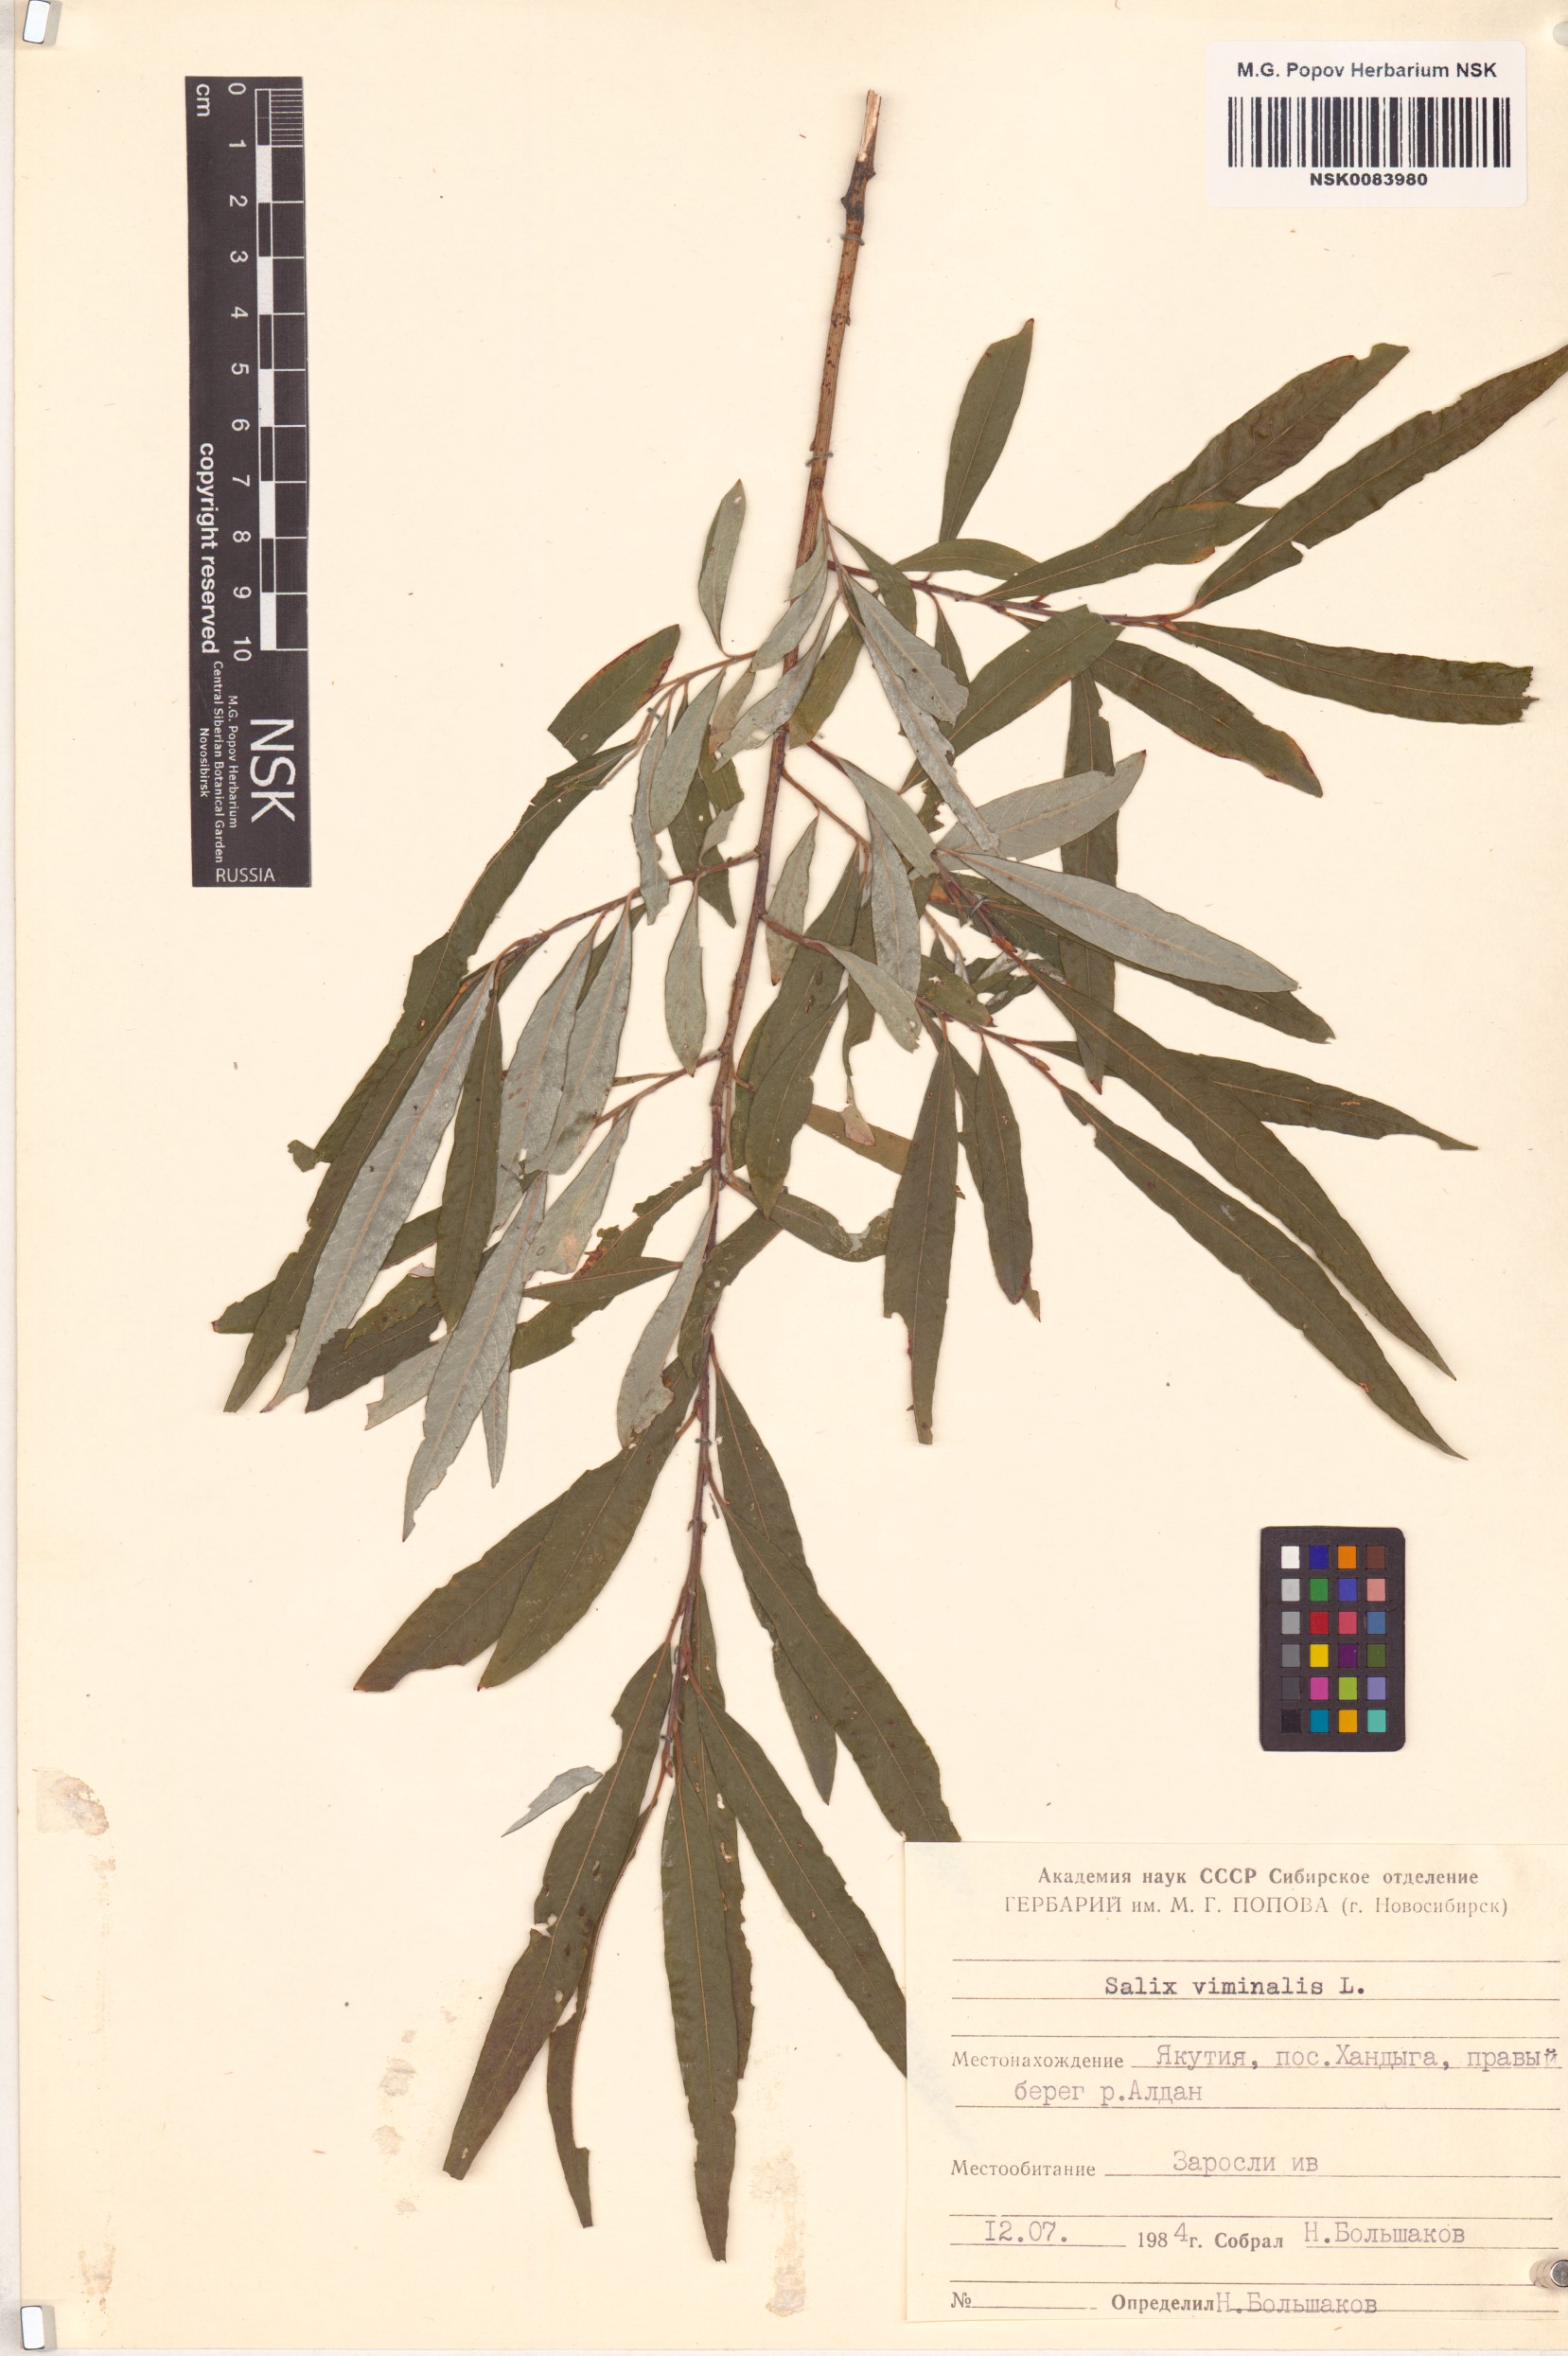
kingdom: Plantae
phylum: Tracheophyta
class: Magnoliopsida
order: Malpighiales
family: Salicaceae
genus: Salix
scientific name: Salix viminalis
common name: Osier
